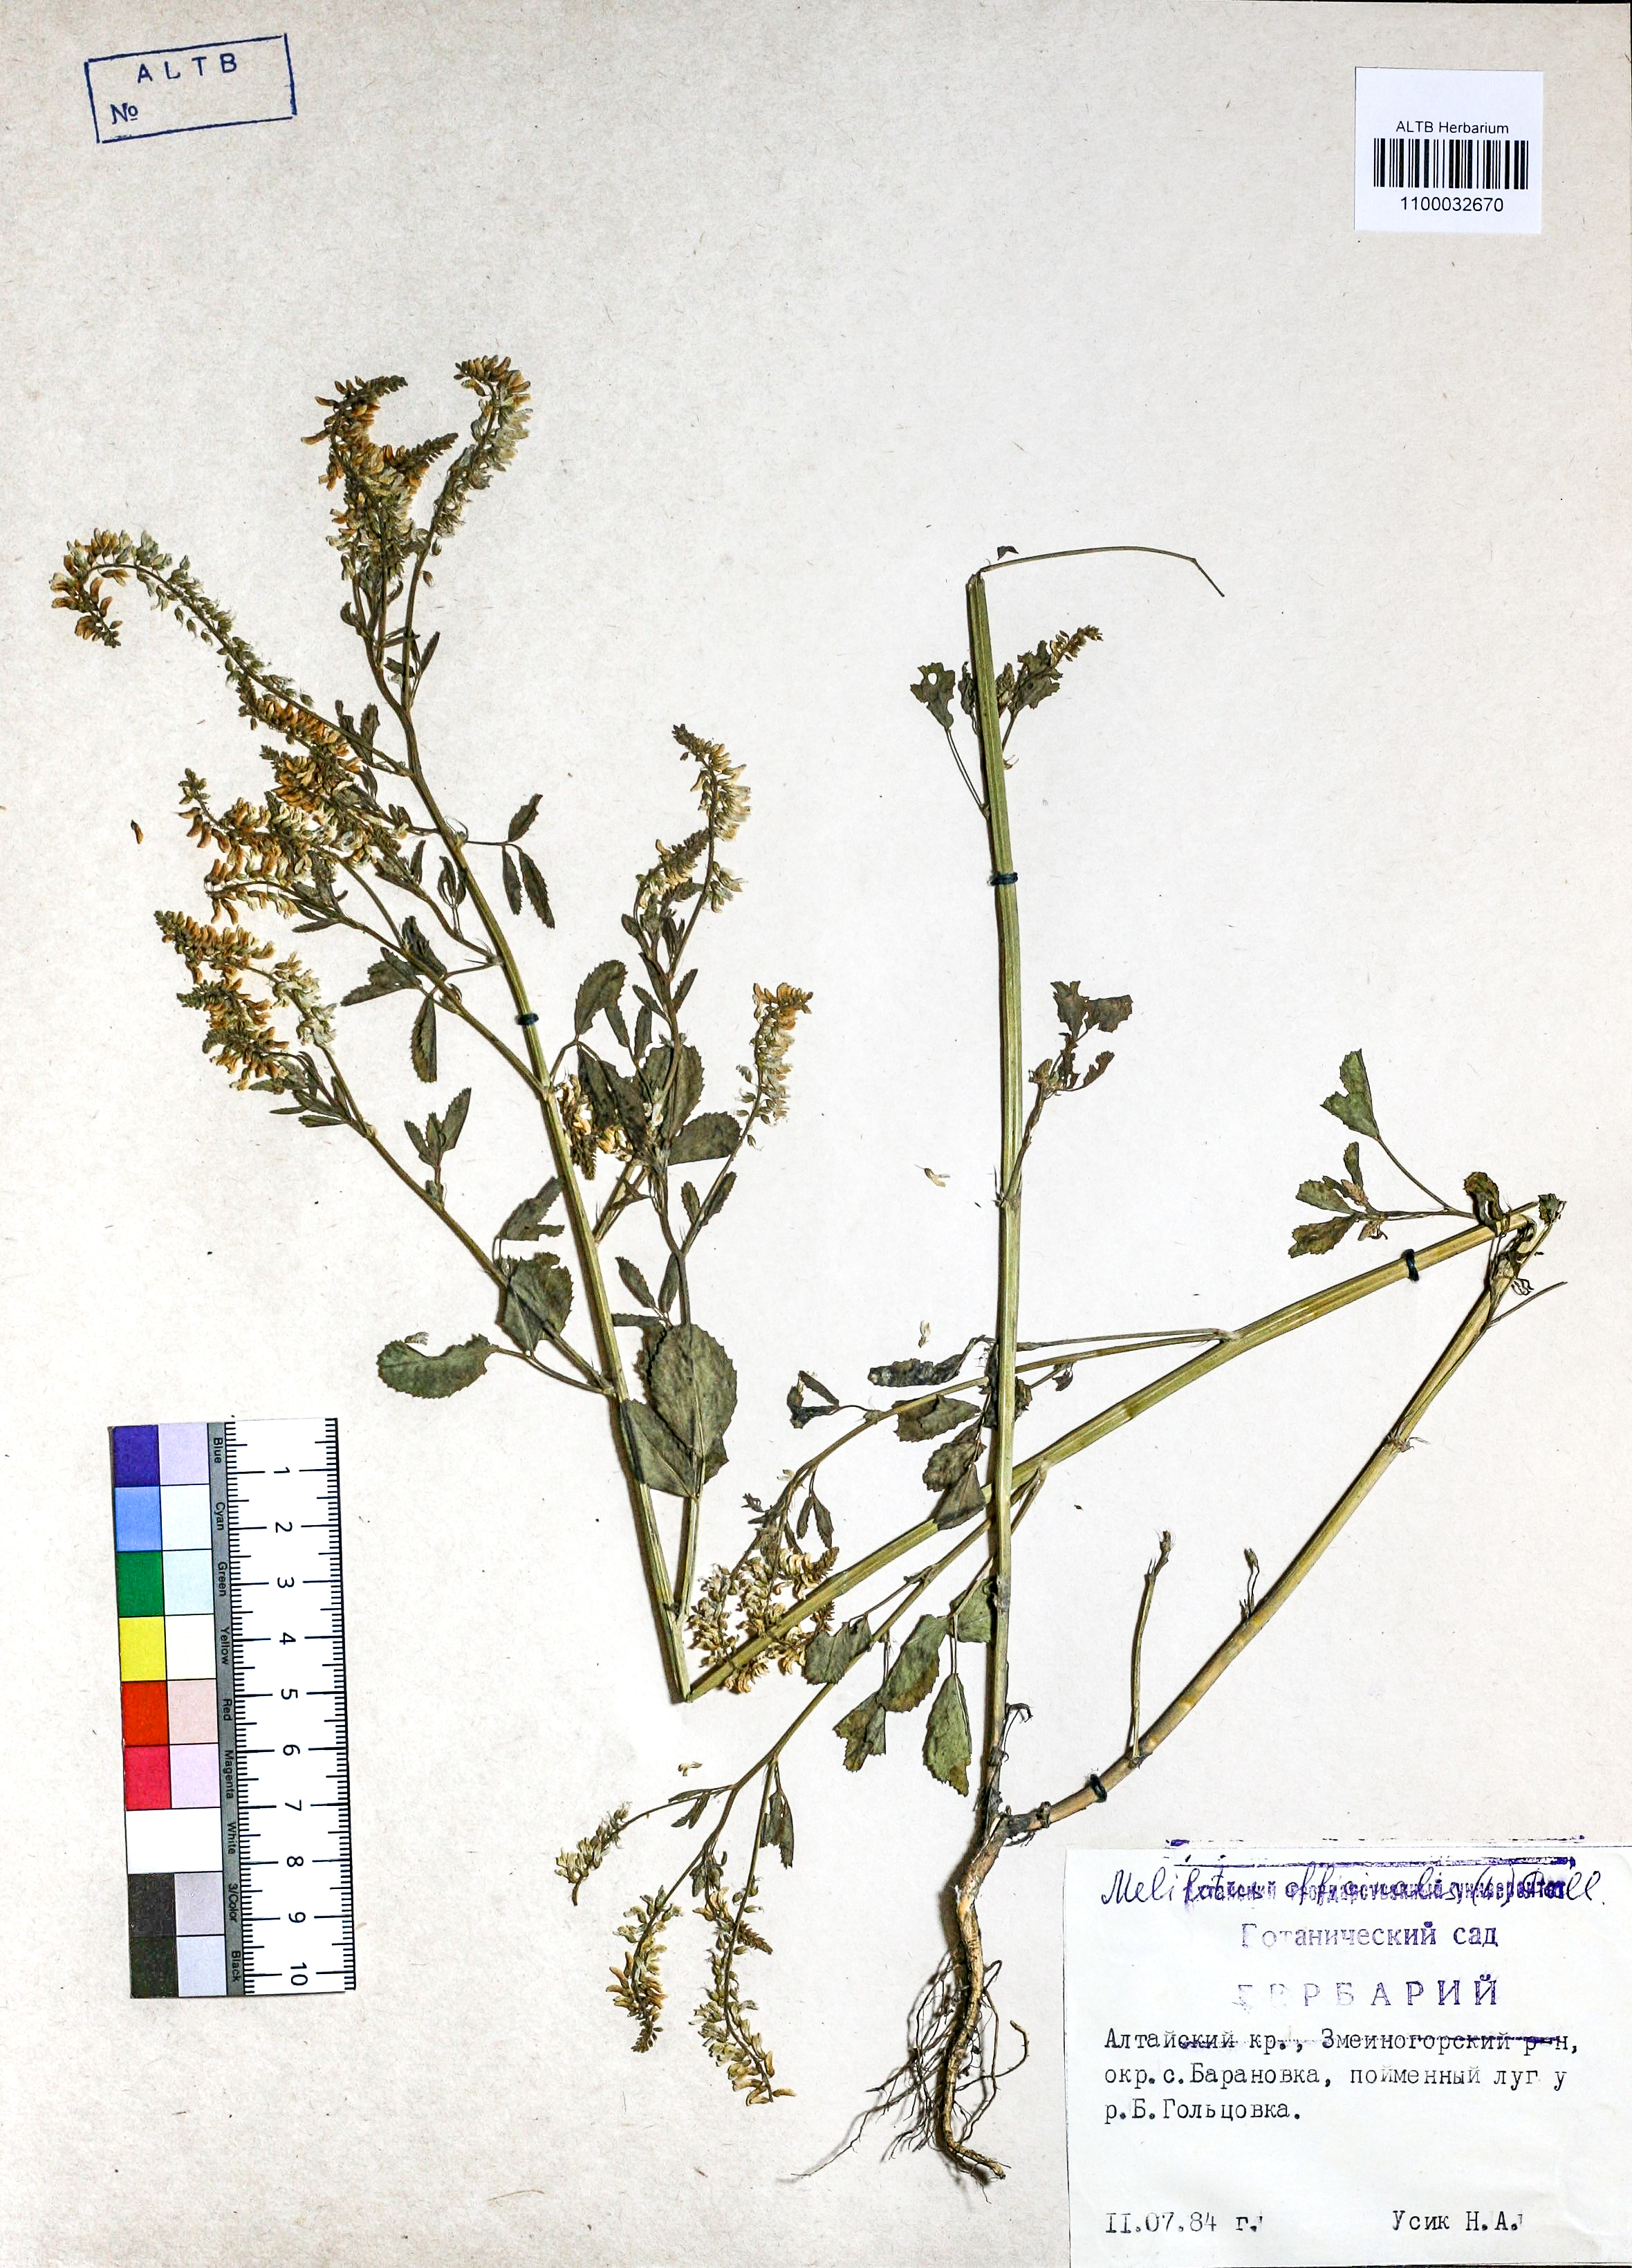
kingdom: Plantae
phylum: Tracheophyta
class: Magnoliopsida
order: Fabales
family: Fabaceae
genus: Melilotus
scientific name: Melilotus officinalis
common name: Sweetclover
